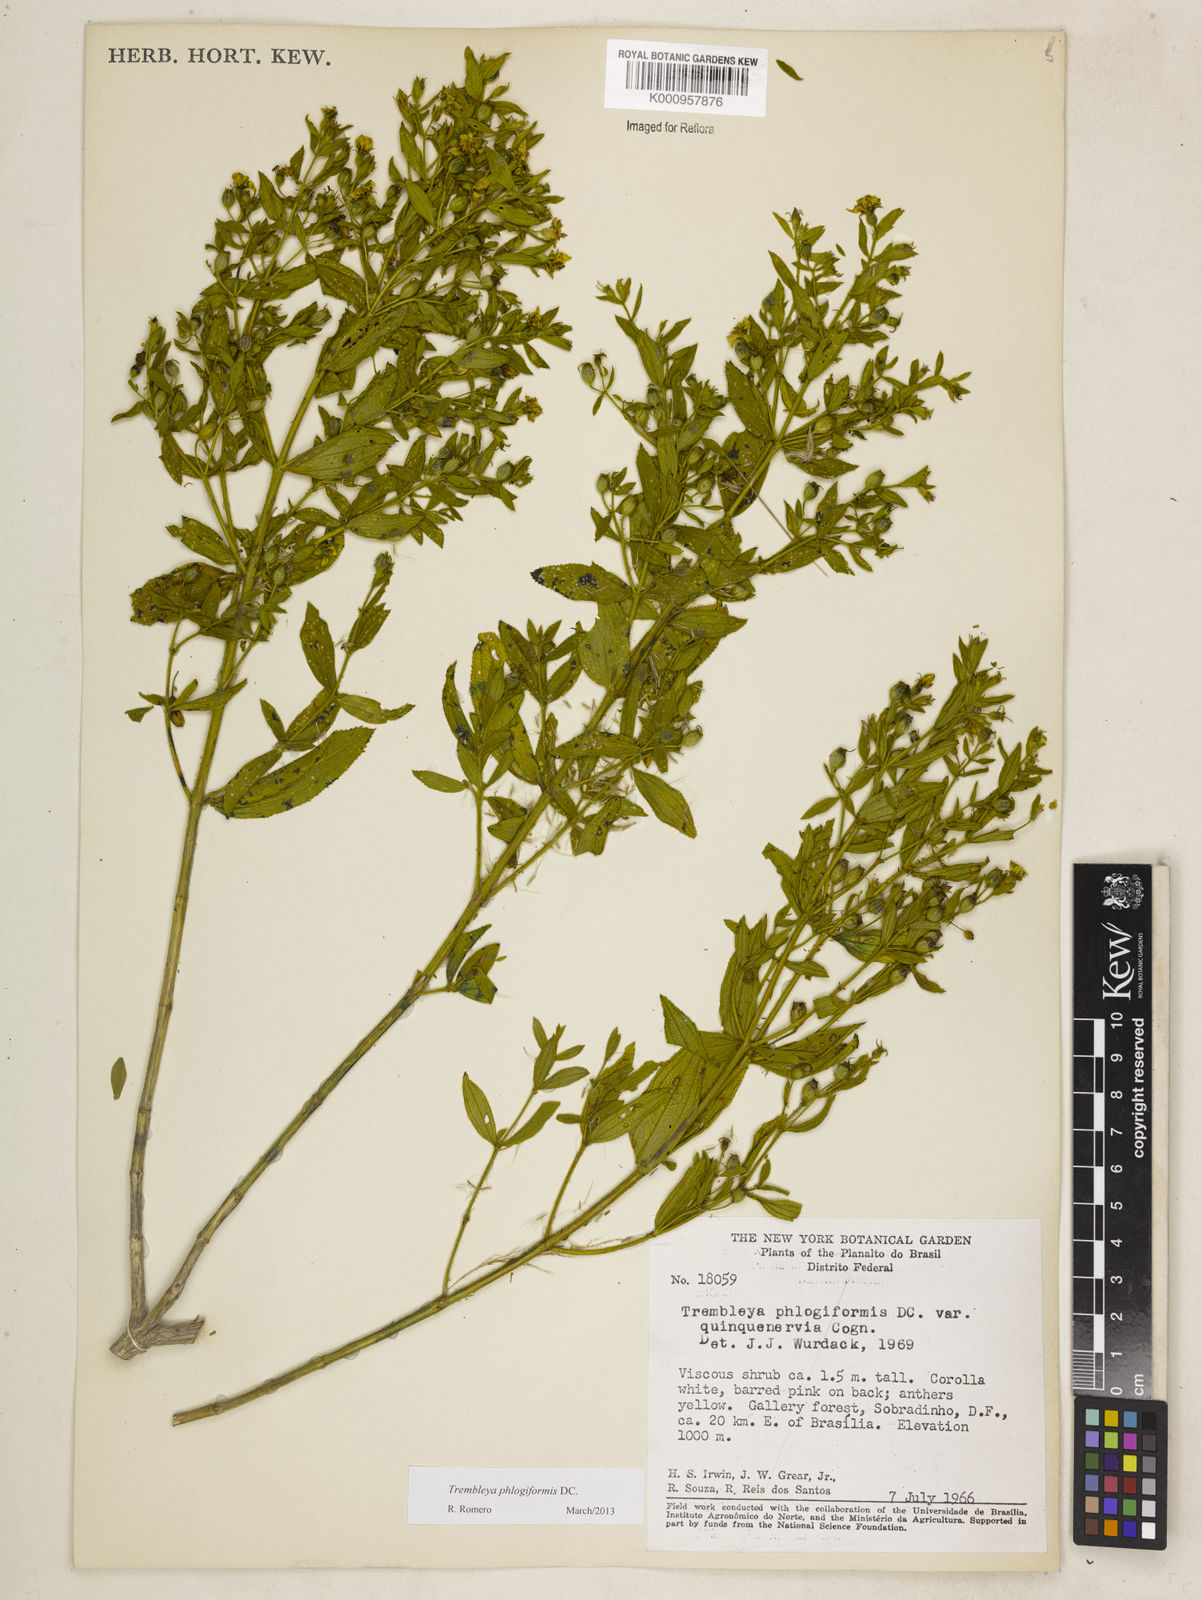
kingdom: Plantae
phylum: Tracheophyta
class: Magnoliopsida
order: Myrtales
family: Melastomataceae
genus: Microlicia
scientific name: Microlicia phlogiformis
